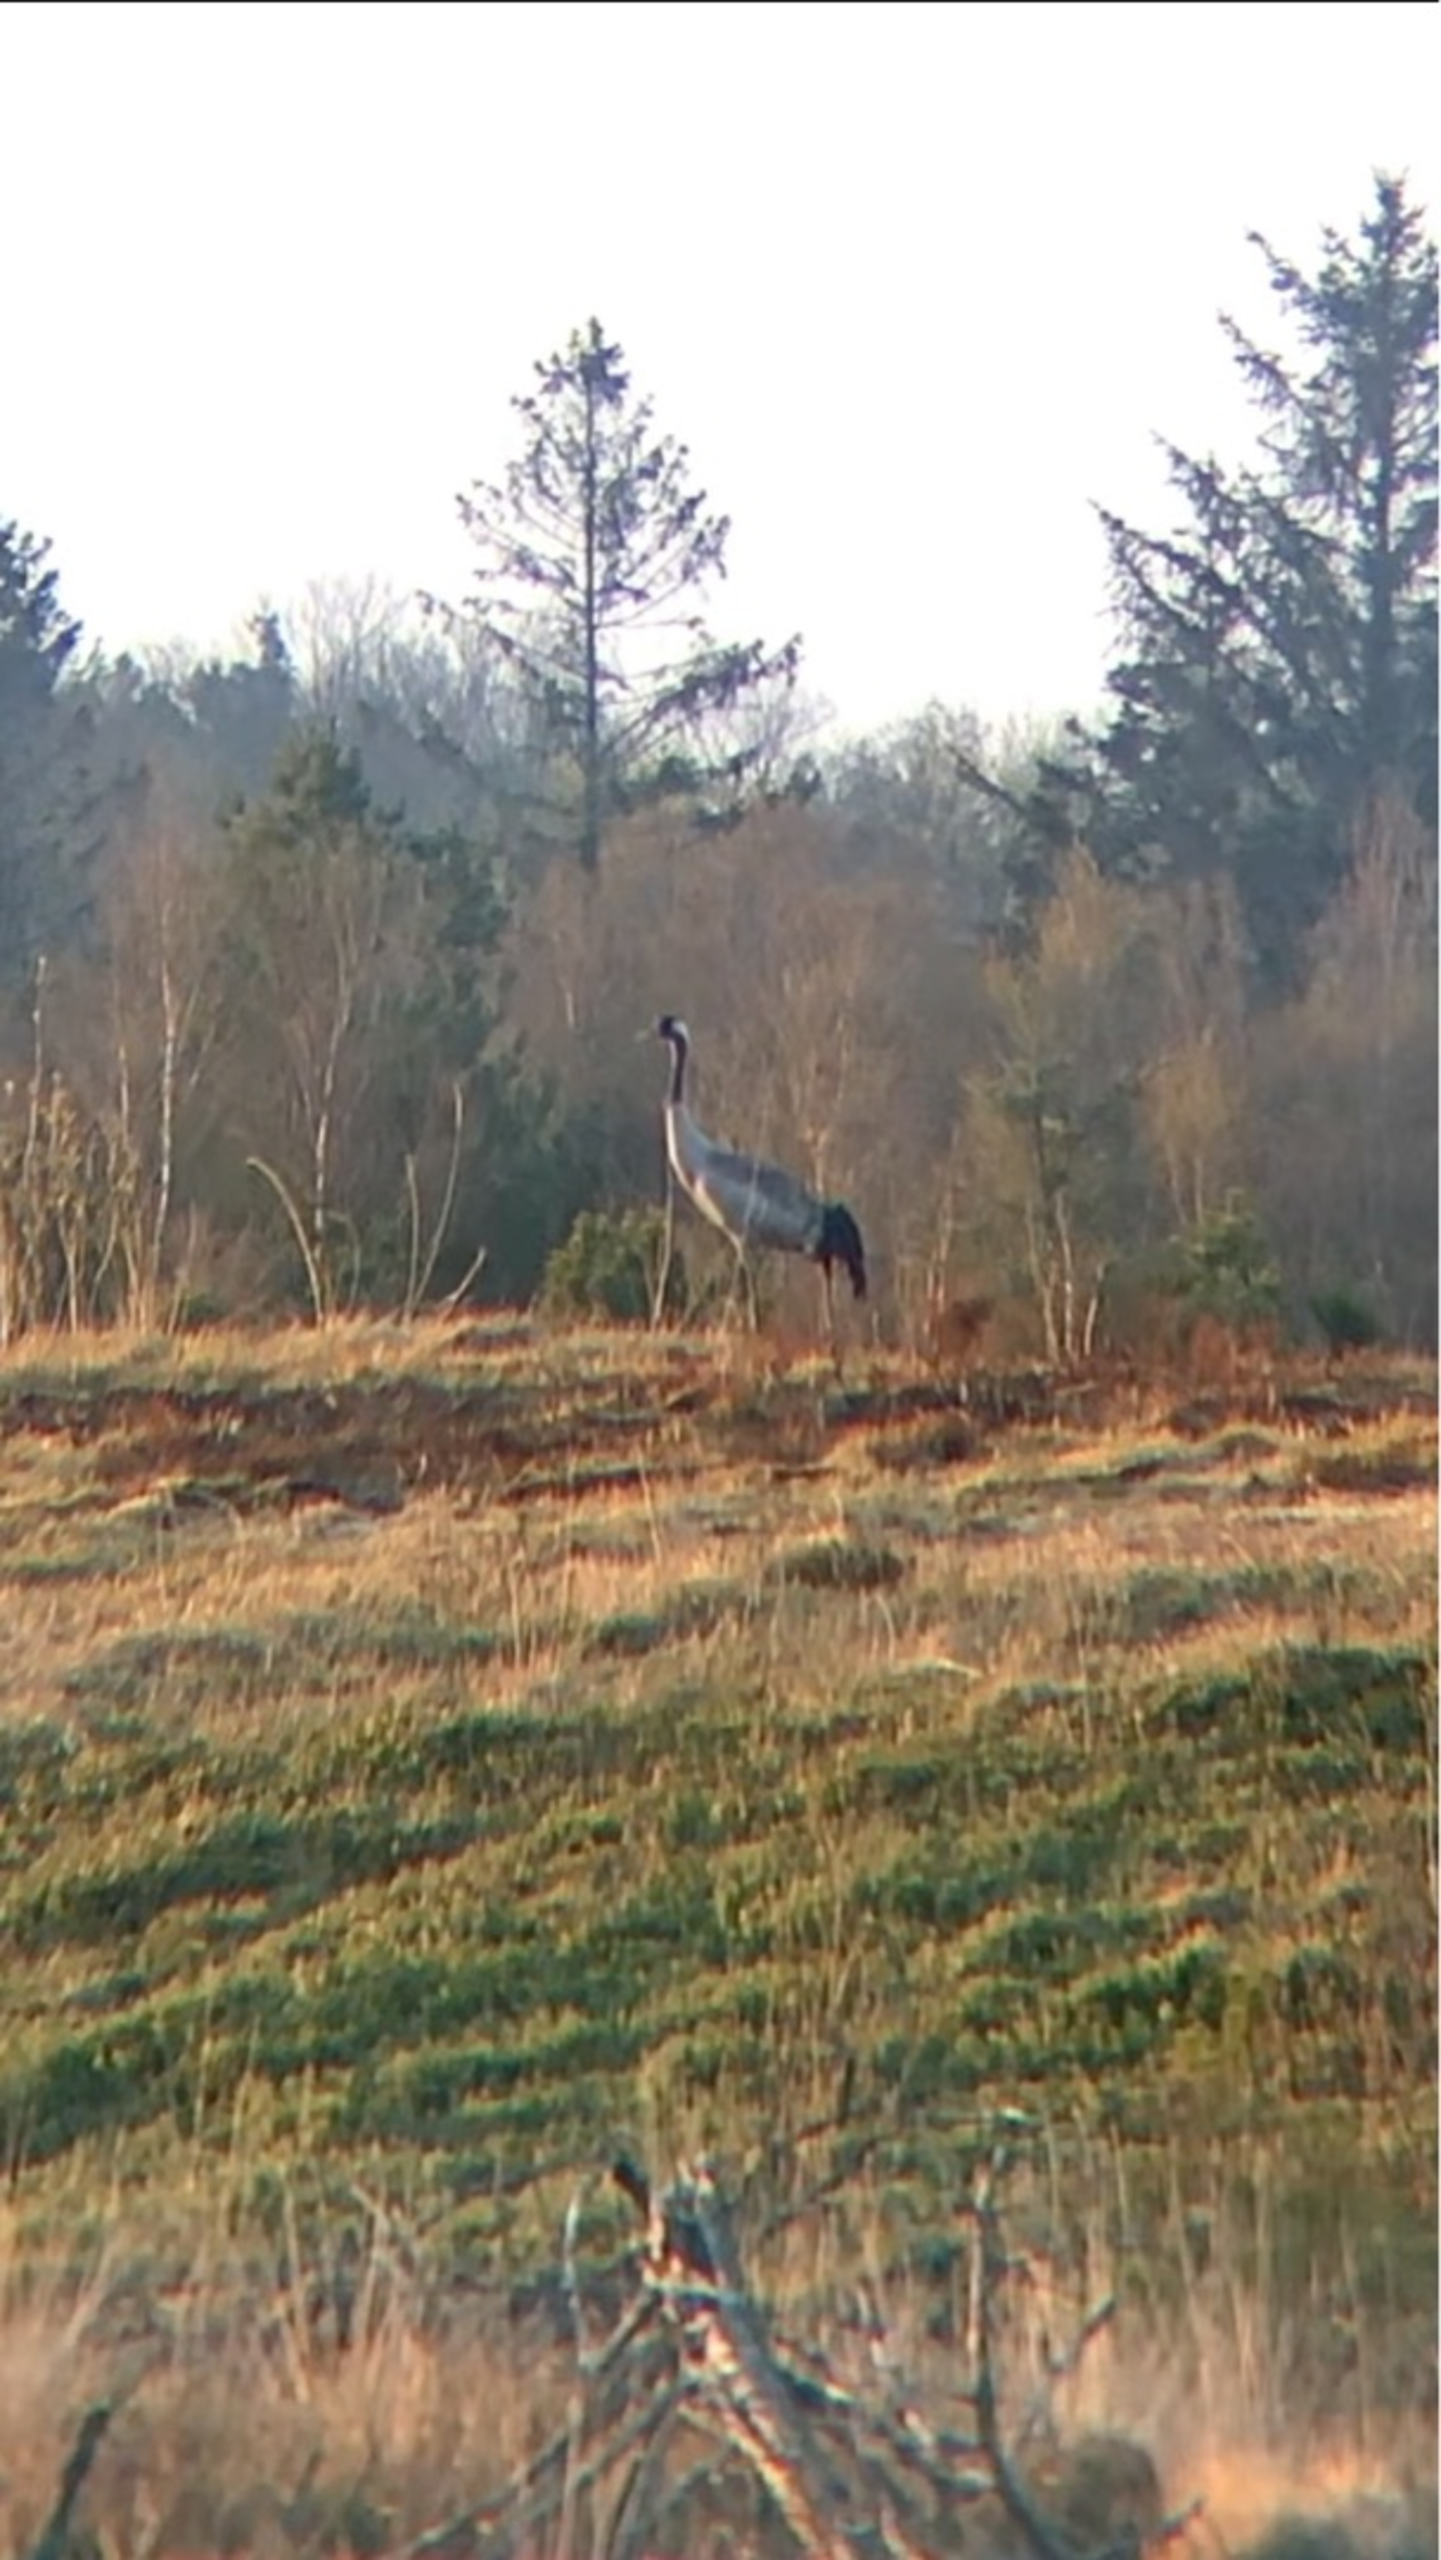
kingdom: Animalia
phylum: Chordata
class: Aves
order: Gruiformes
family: Gruidae
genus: Grus
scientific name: Grus grus
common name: Trane
